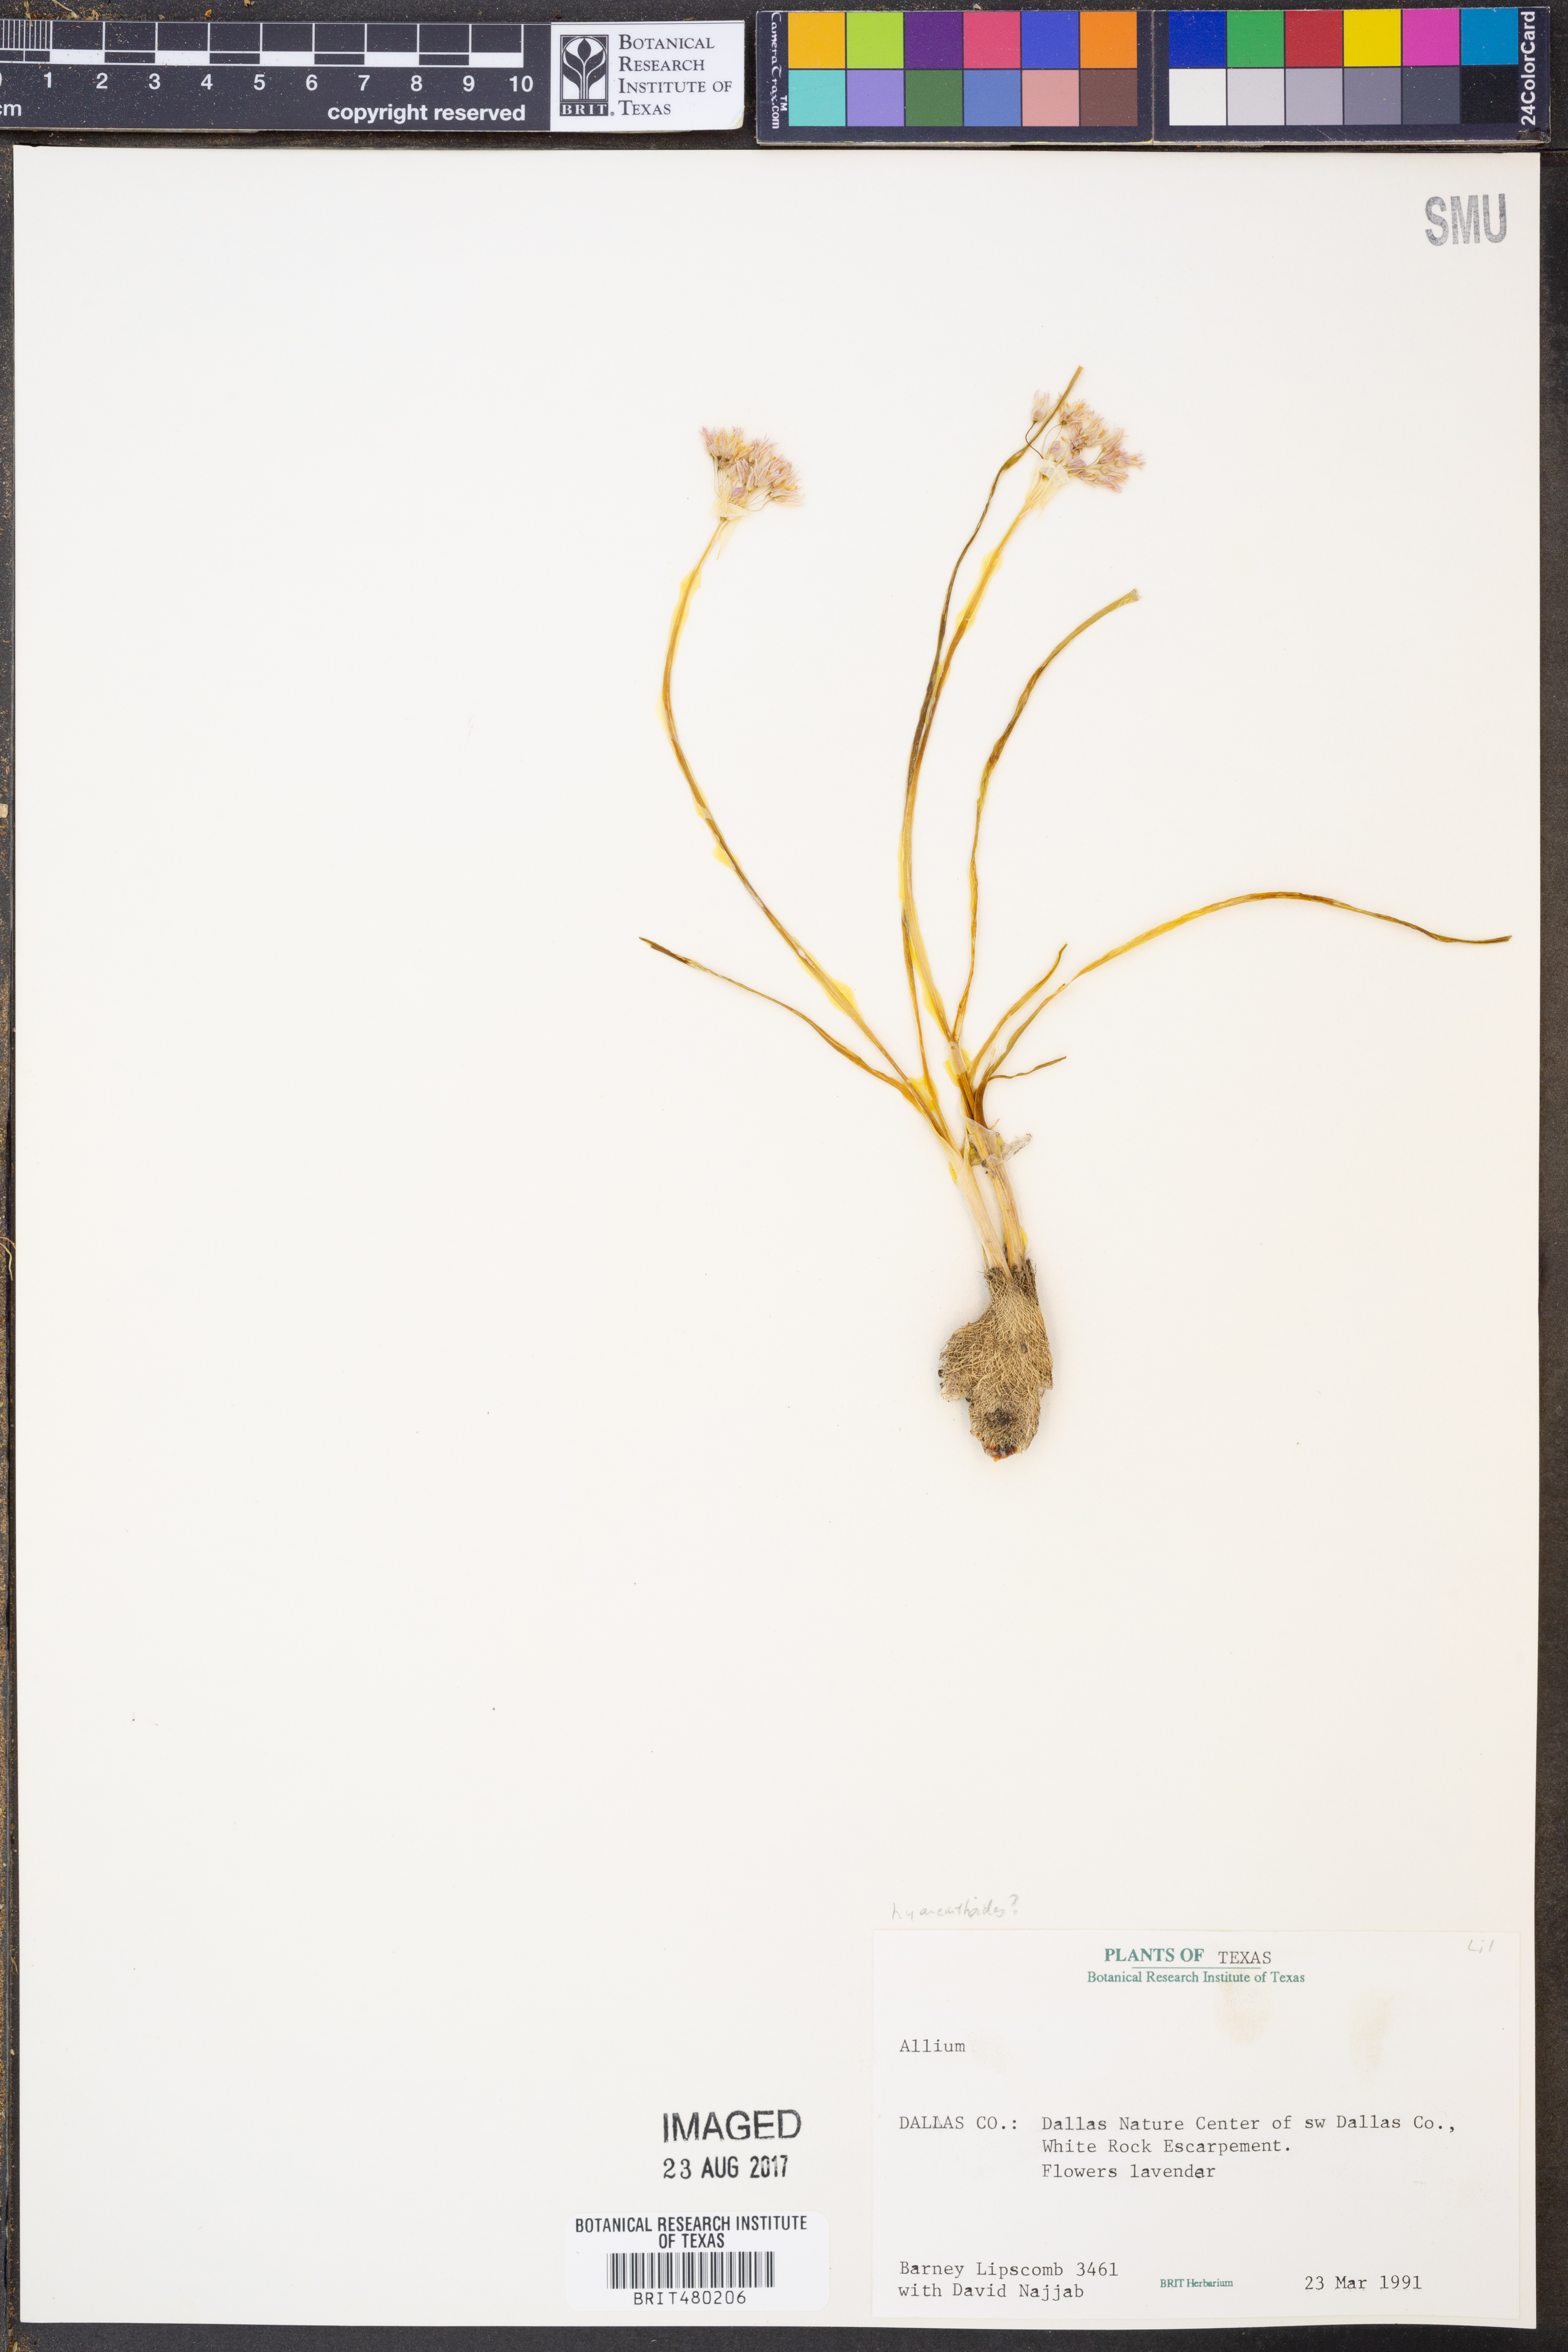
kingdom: Plantae
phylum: Tracheophyta
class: Liliopsida
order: Asparagales
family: Amaryllidaceae
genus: Allium
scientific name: Allium
